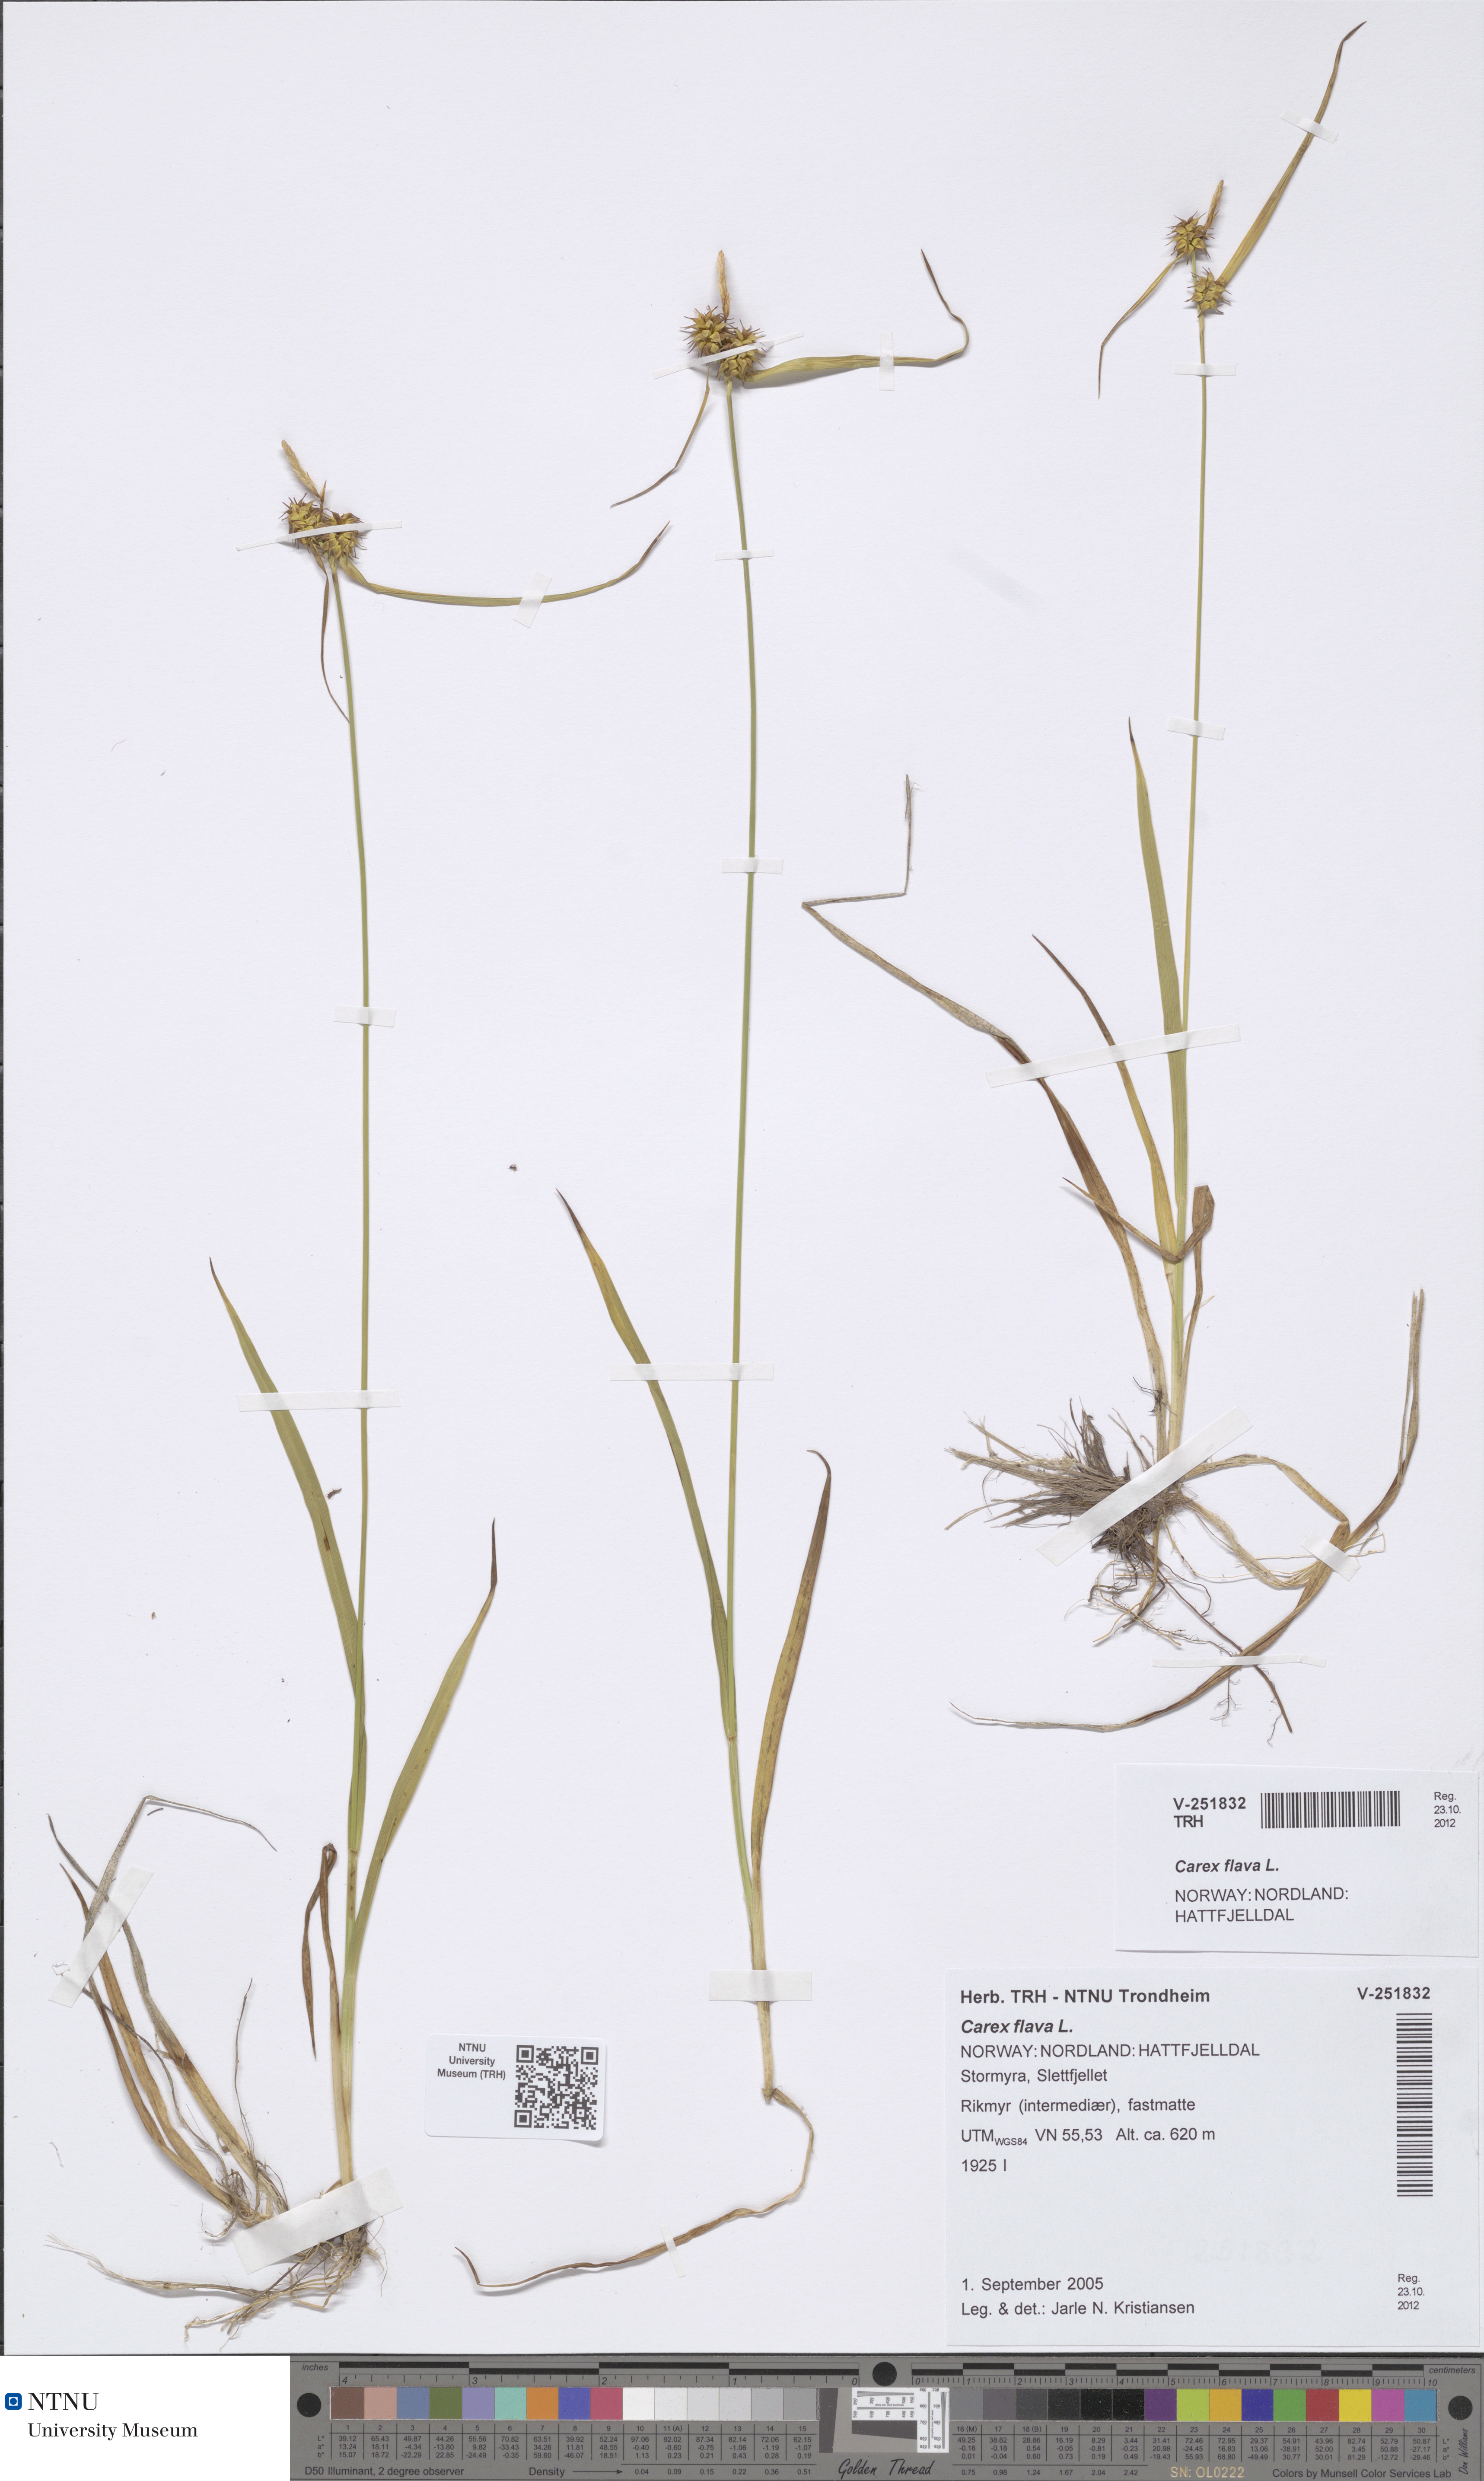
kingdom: Plantae
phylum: Tracheophyta
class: Liliopsida
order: Poales
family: Cyperaceae
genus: Carex
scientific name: Carex flava
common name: Large yellow-sedge
